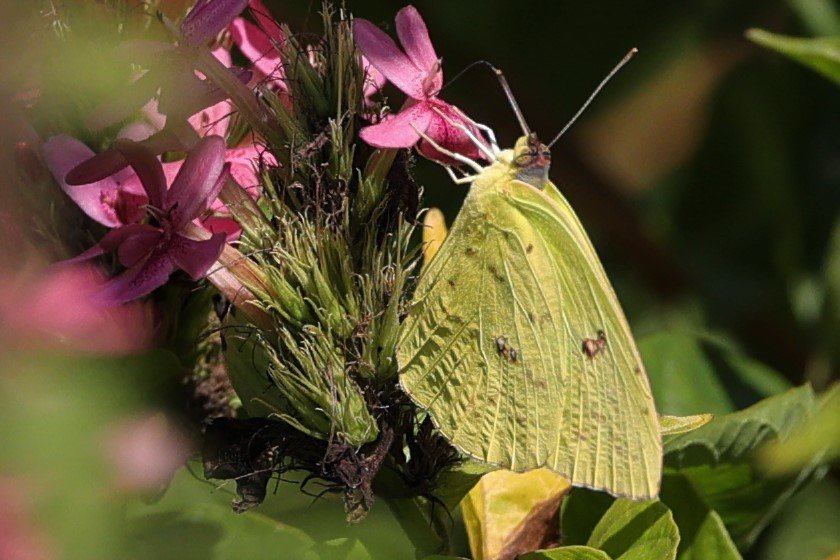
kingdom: Animalia
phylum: Arthropoda
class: Insecta
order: Lepidoptera
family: Pieridae
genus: Phoebis
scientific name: Phoebis sennae
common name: Cloudless Sulphur
